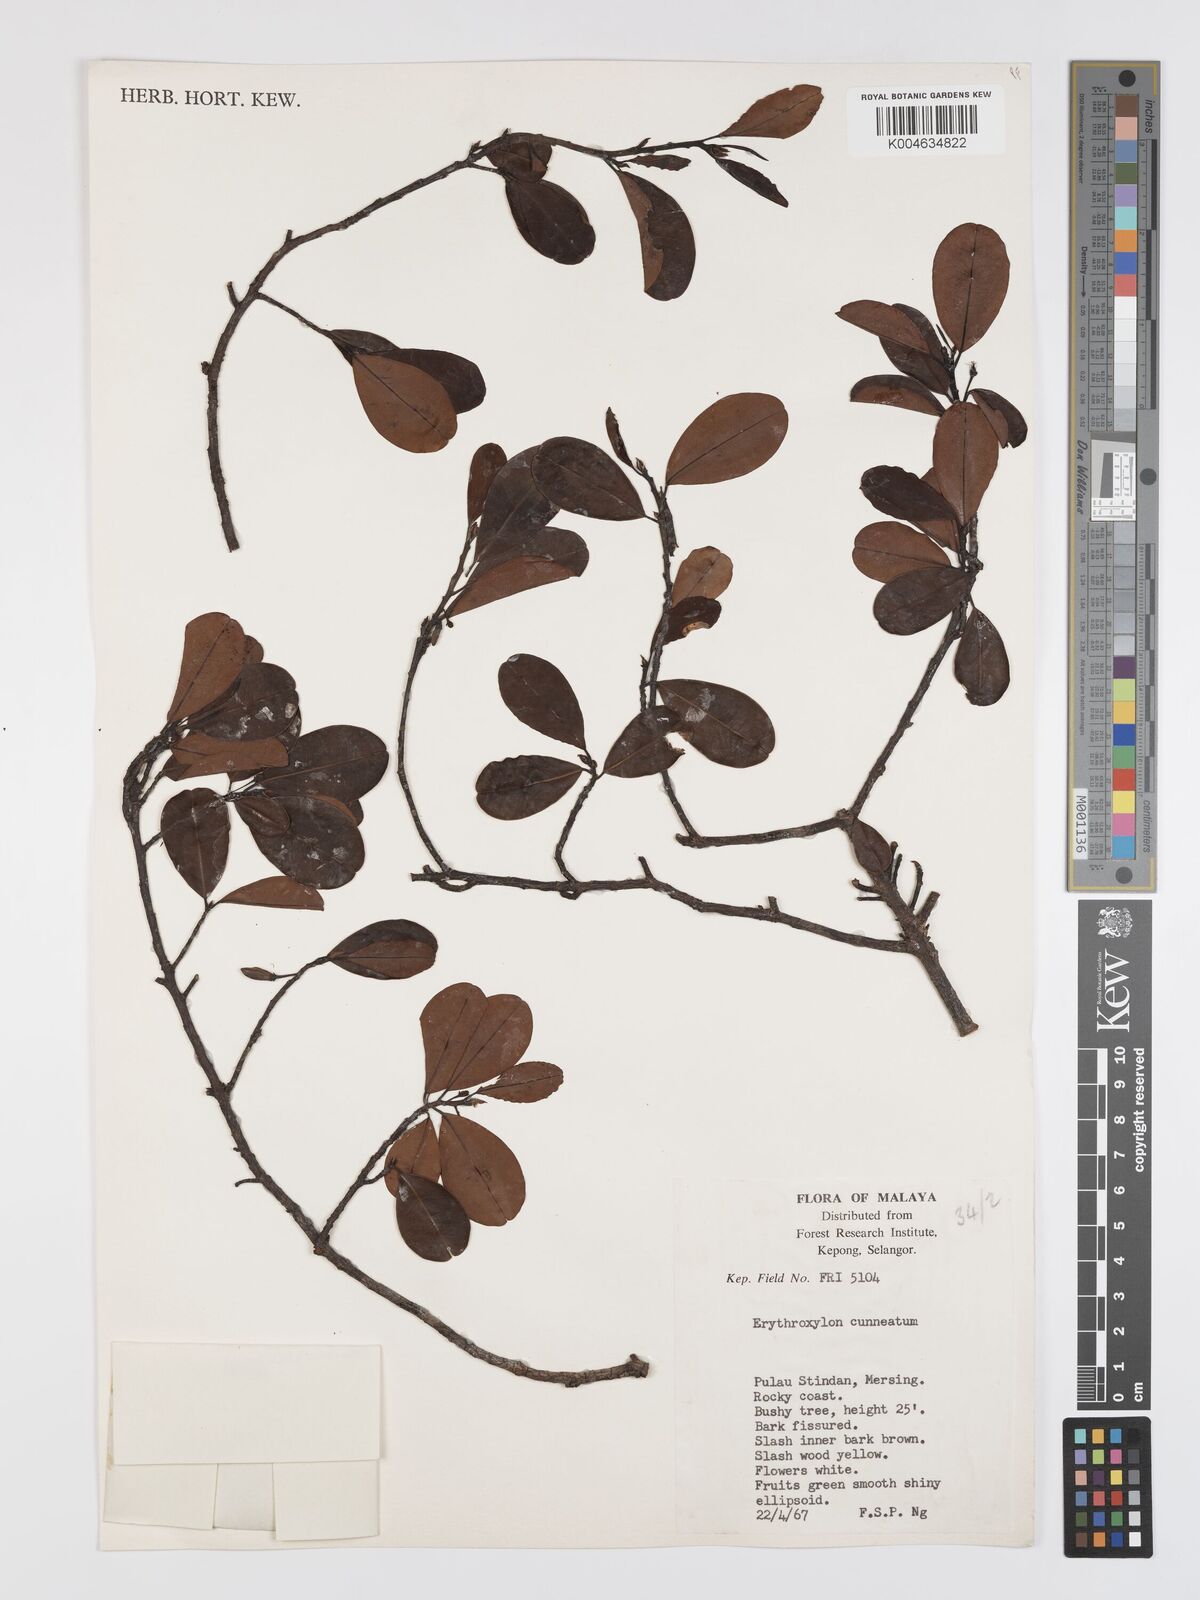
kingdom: Plantae
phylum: Tracheophyta
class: Magnoliopsida
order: Malpighiales
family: Erythroxylaceae
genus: Erythroxylum
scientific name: Erythroxylum cuneatum
